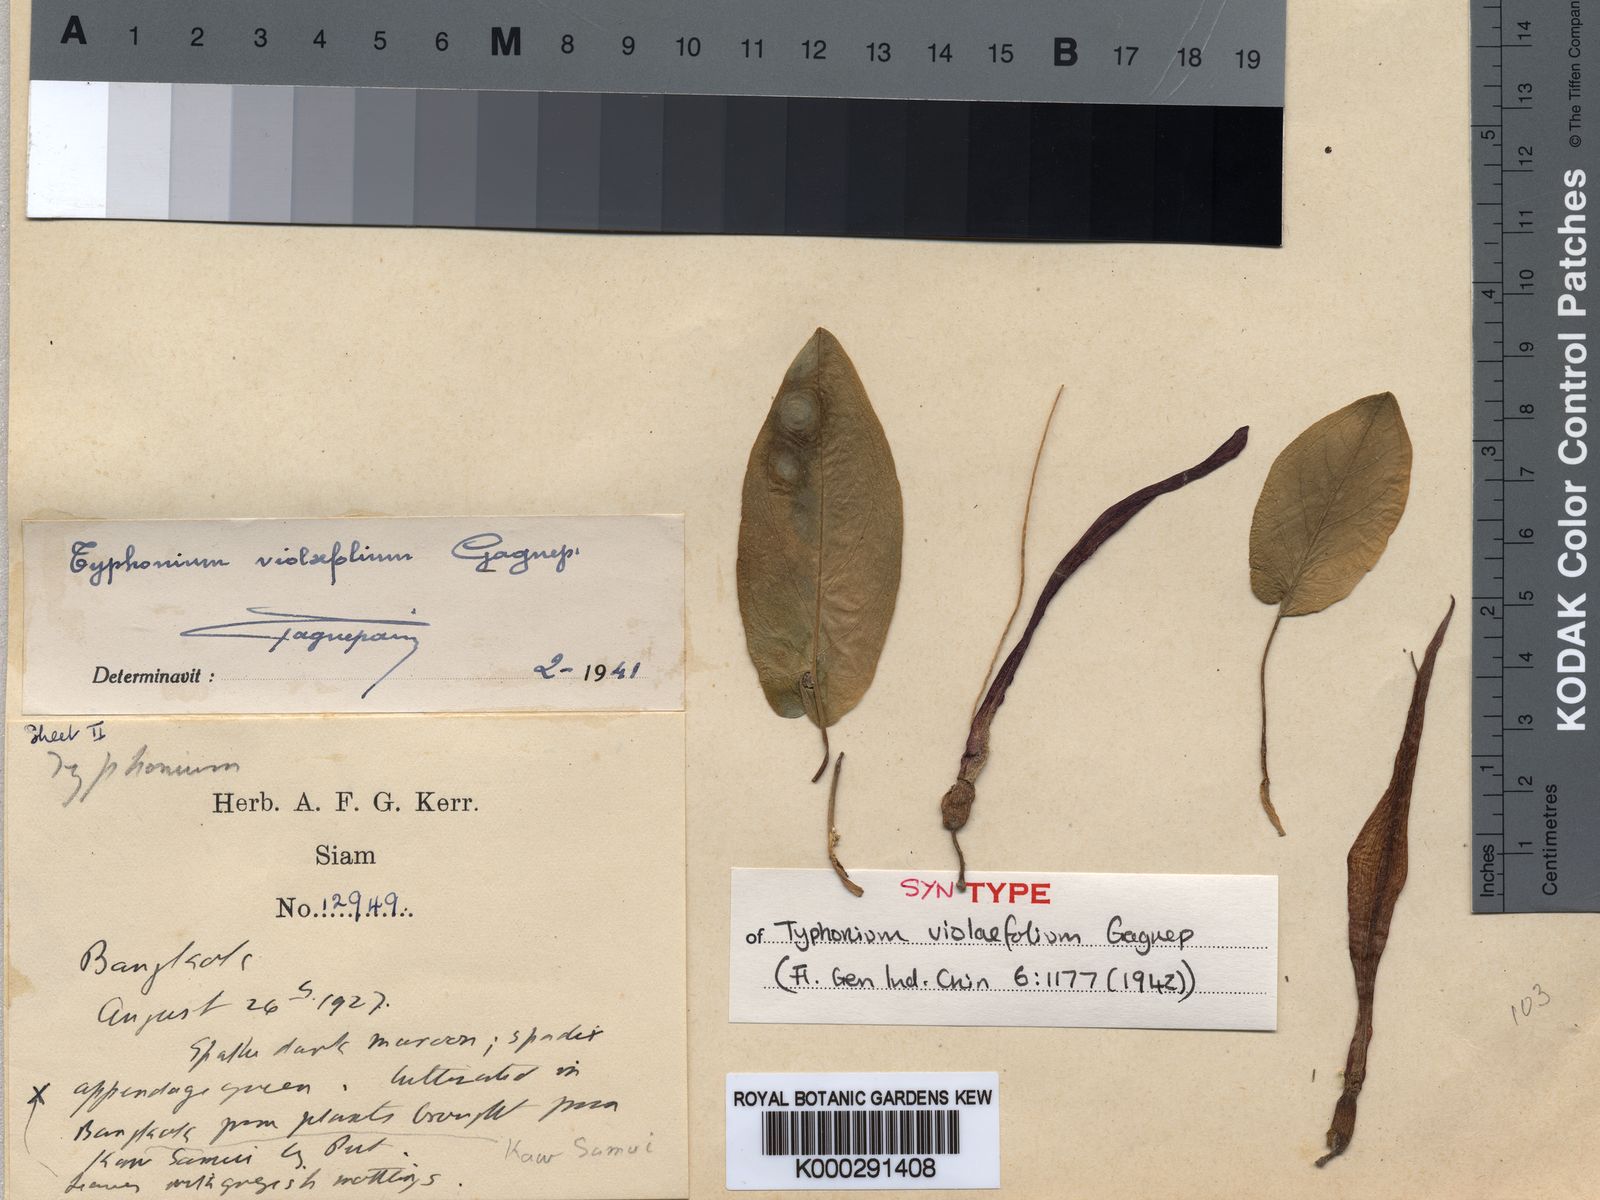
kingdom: Plantae
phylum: Tracheophyta
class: Liliopsida
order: Alismatales
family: Araceae
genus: Typhonium
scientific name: Typhonium violifolium
